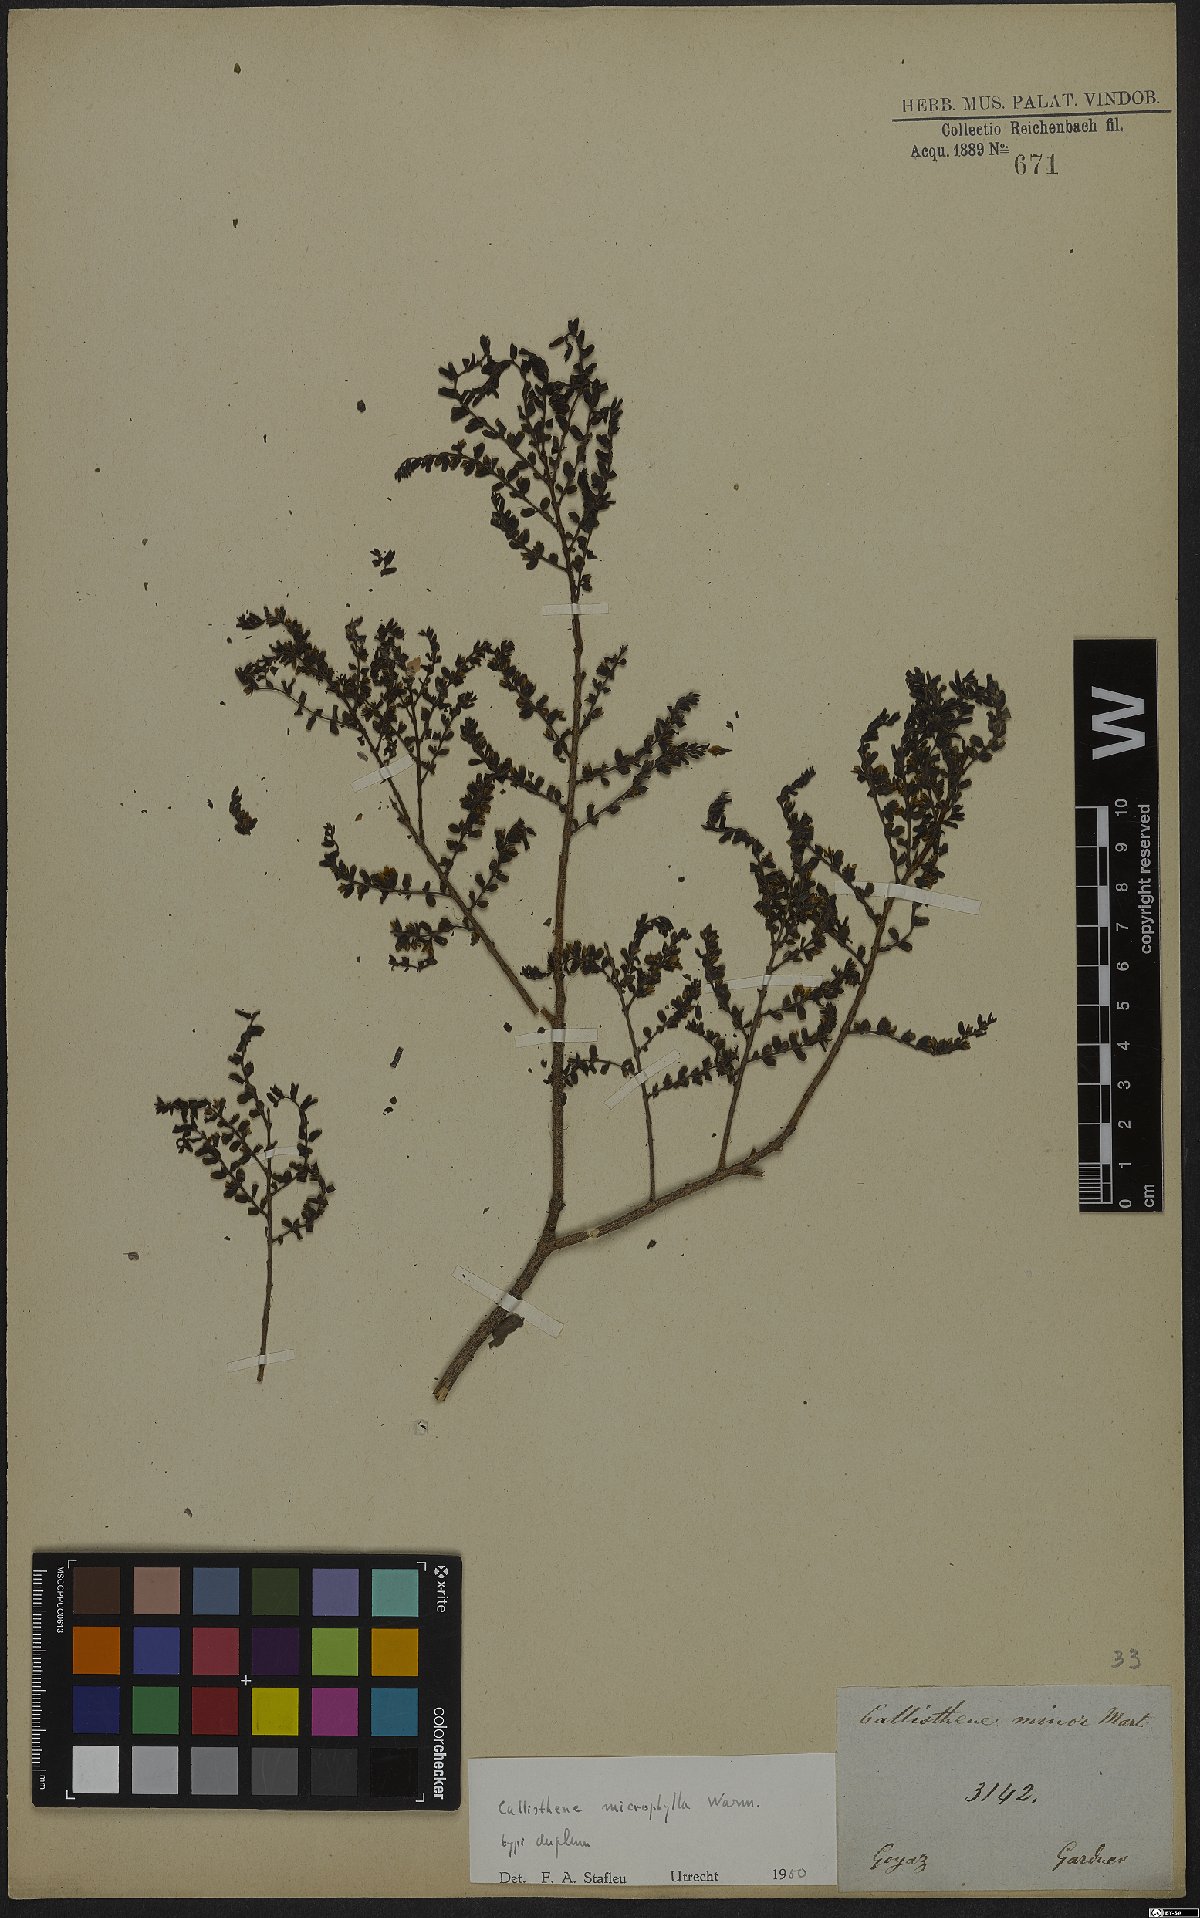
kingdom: Plantae
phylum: Tracheophyta
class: Magnoliopsida
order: Myrtales
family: Vochysiaceae
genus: Callisthene
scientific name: Callisthene microphylla
